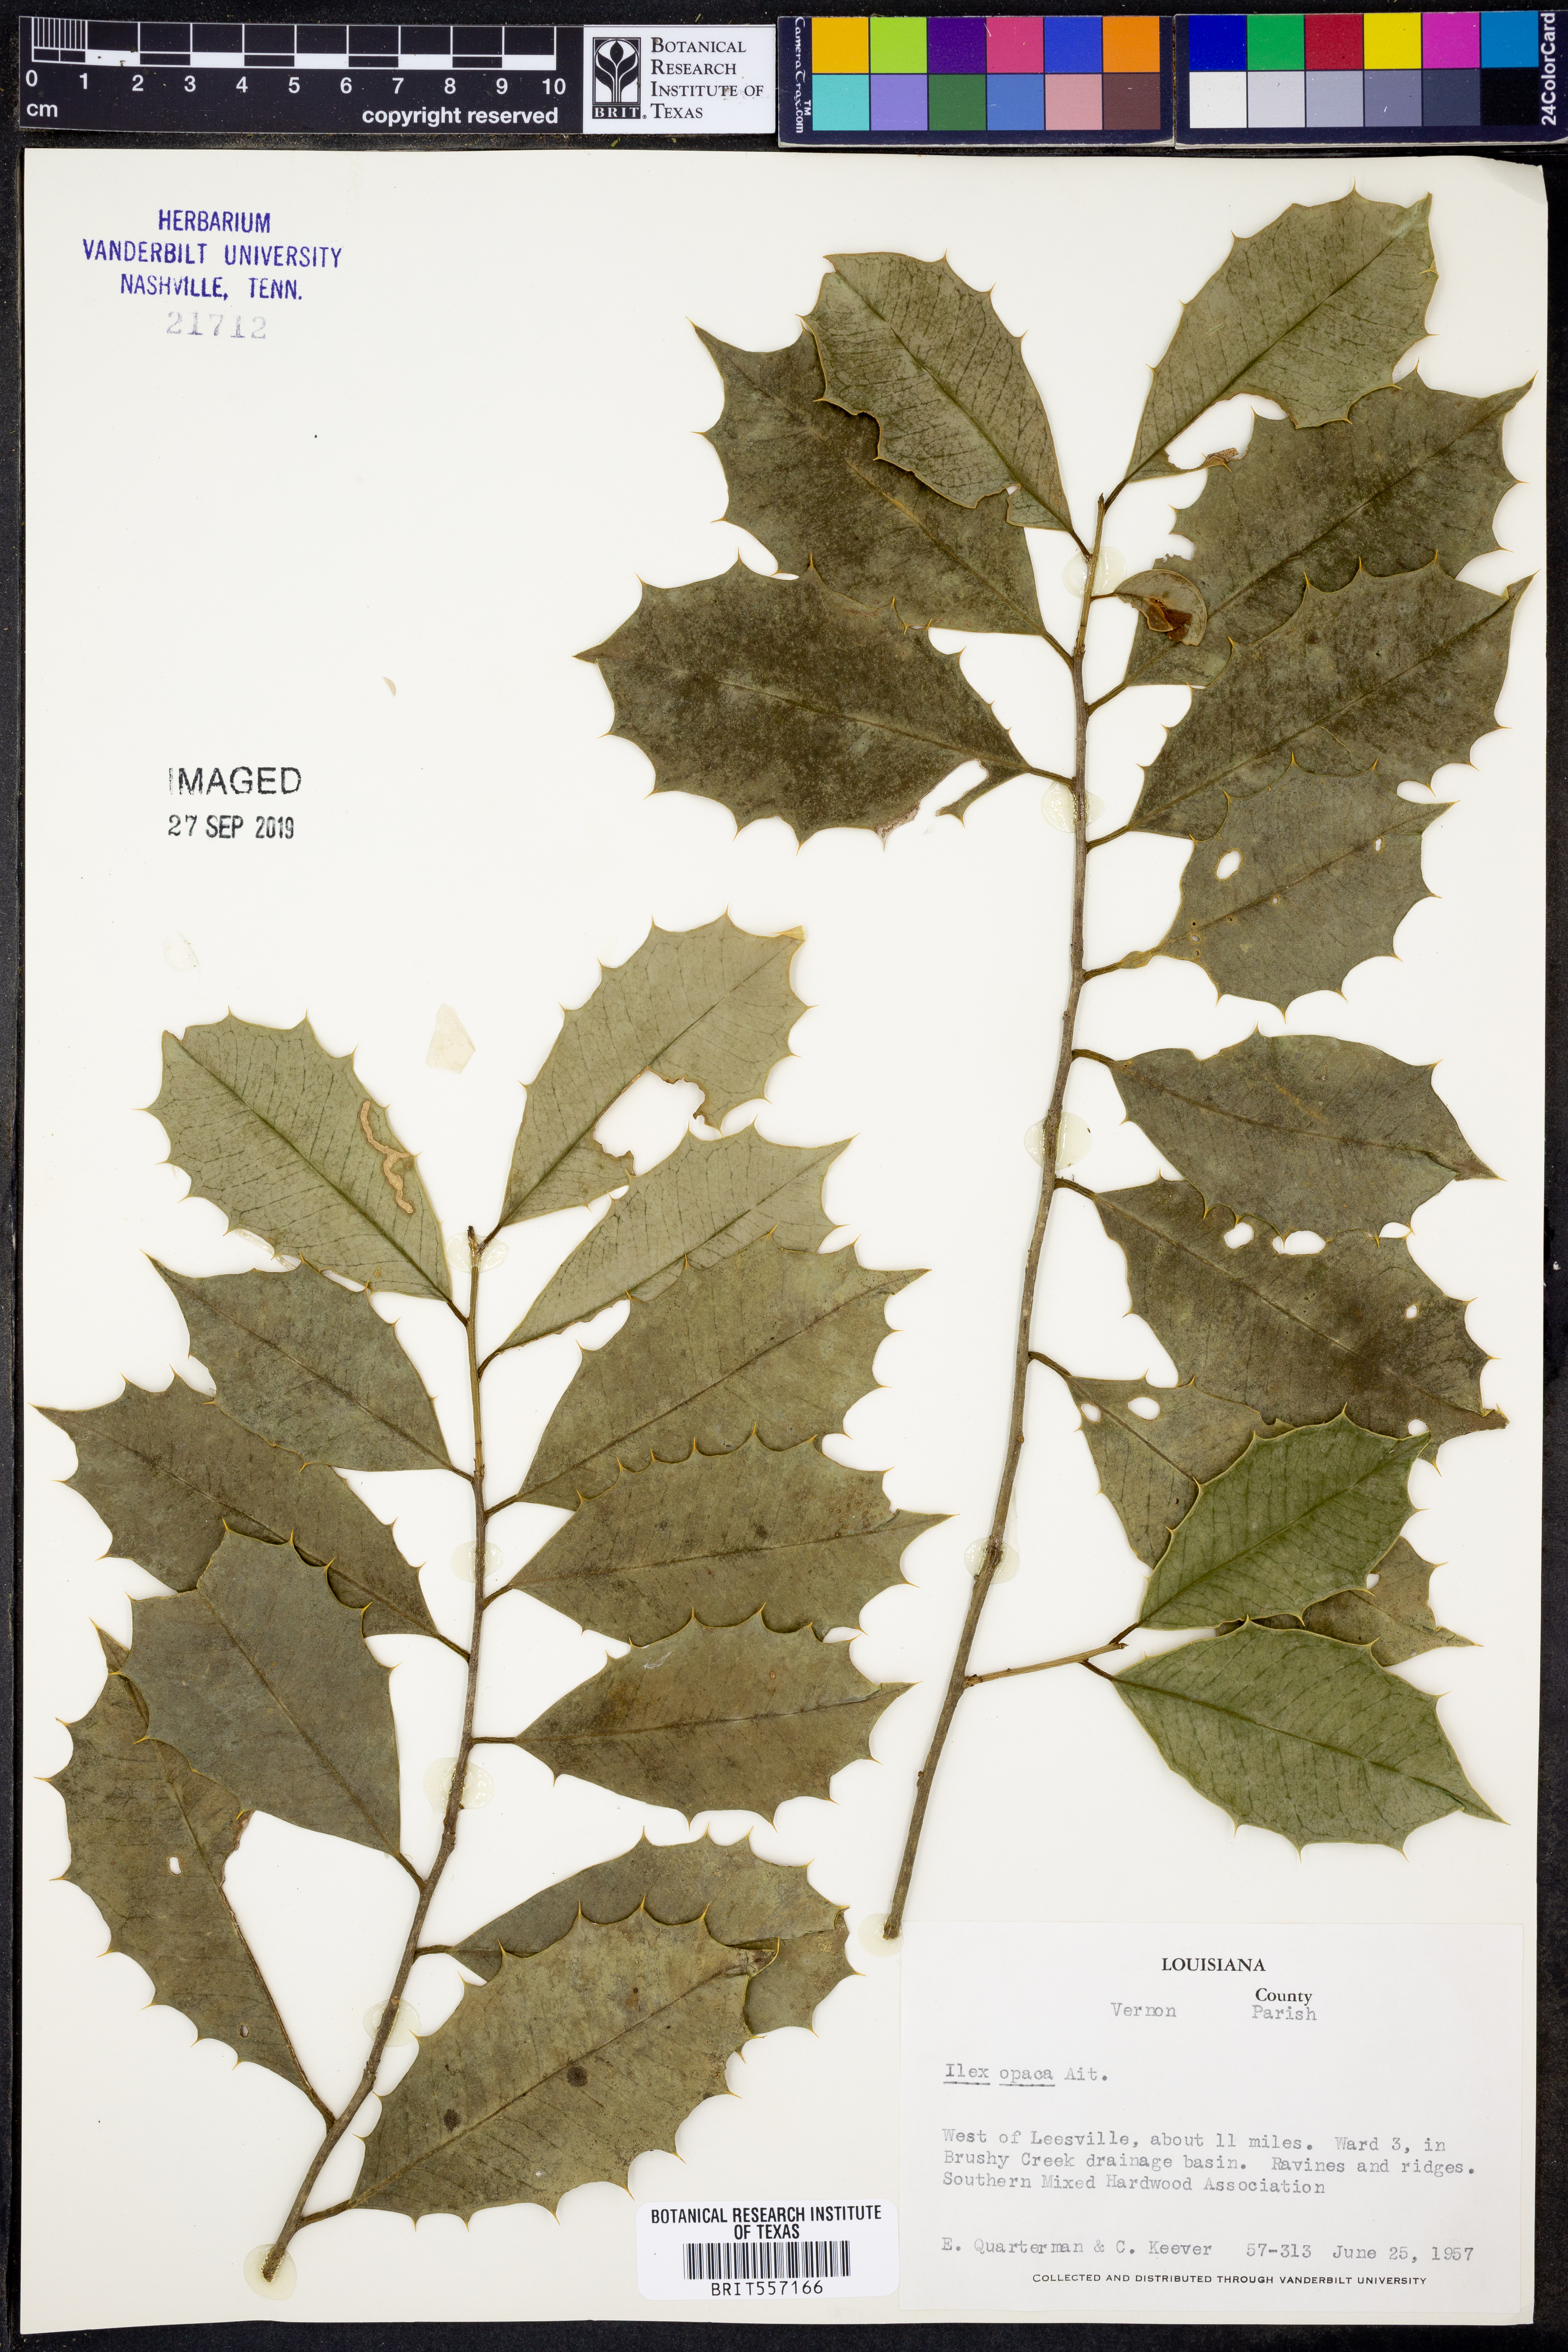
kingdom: Plantae
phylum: Tracheophyta
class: Magnoliopsida
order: Aquifoliales
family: Aquifoliaceae
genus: Ilex
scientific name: Ilex opaca
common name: American holly
